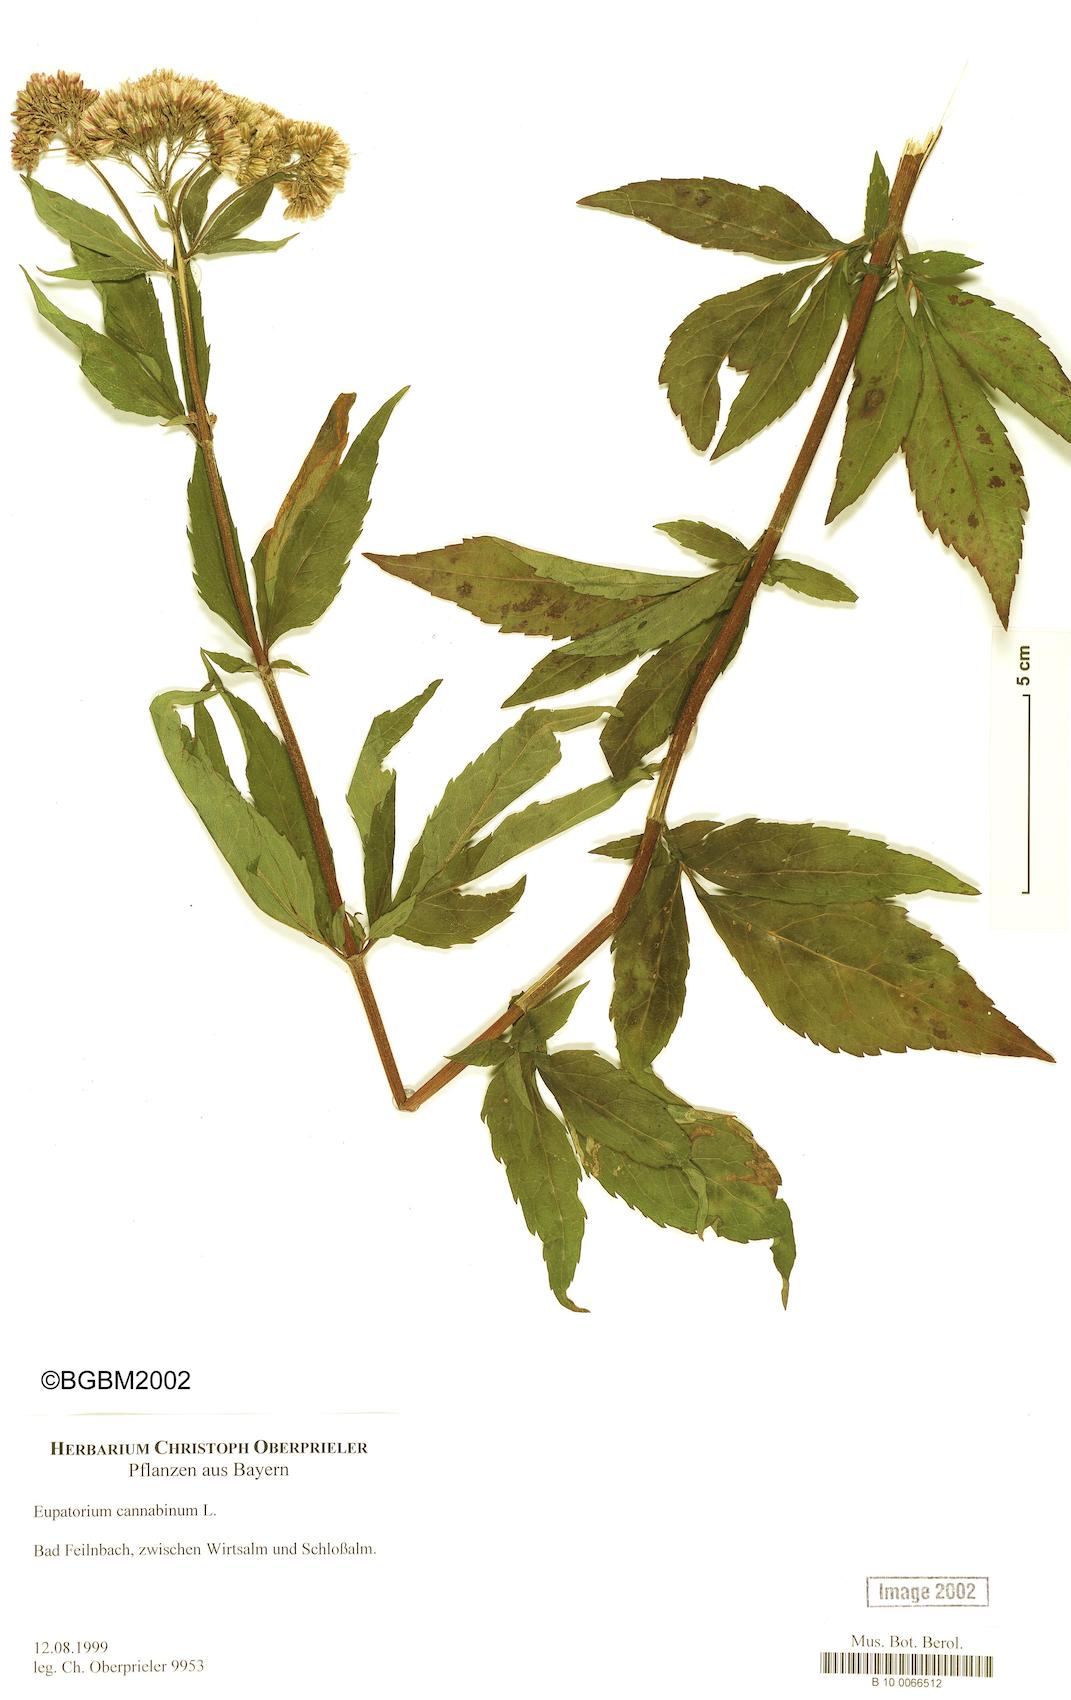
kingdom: Plantae
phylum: Tracheophyta
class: Magnoliopsida
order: Asterales
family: Asteraceae
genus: Eupatorium
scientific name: Eupatorium cannabinum
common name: Hemp-agrimony
